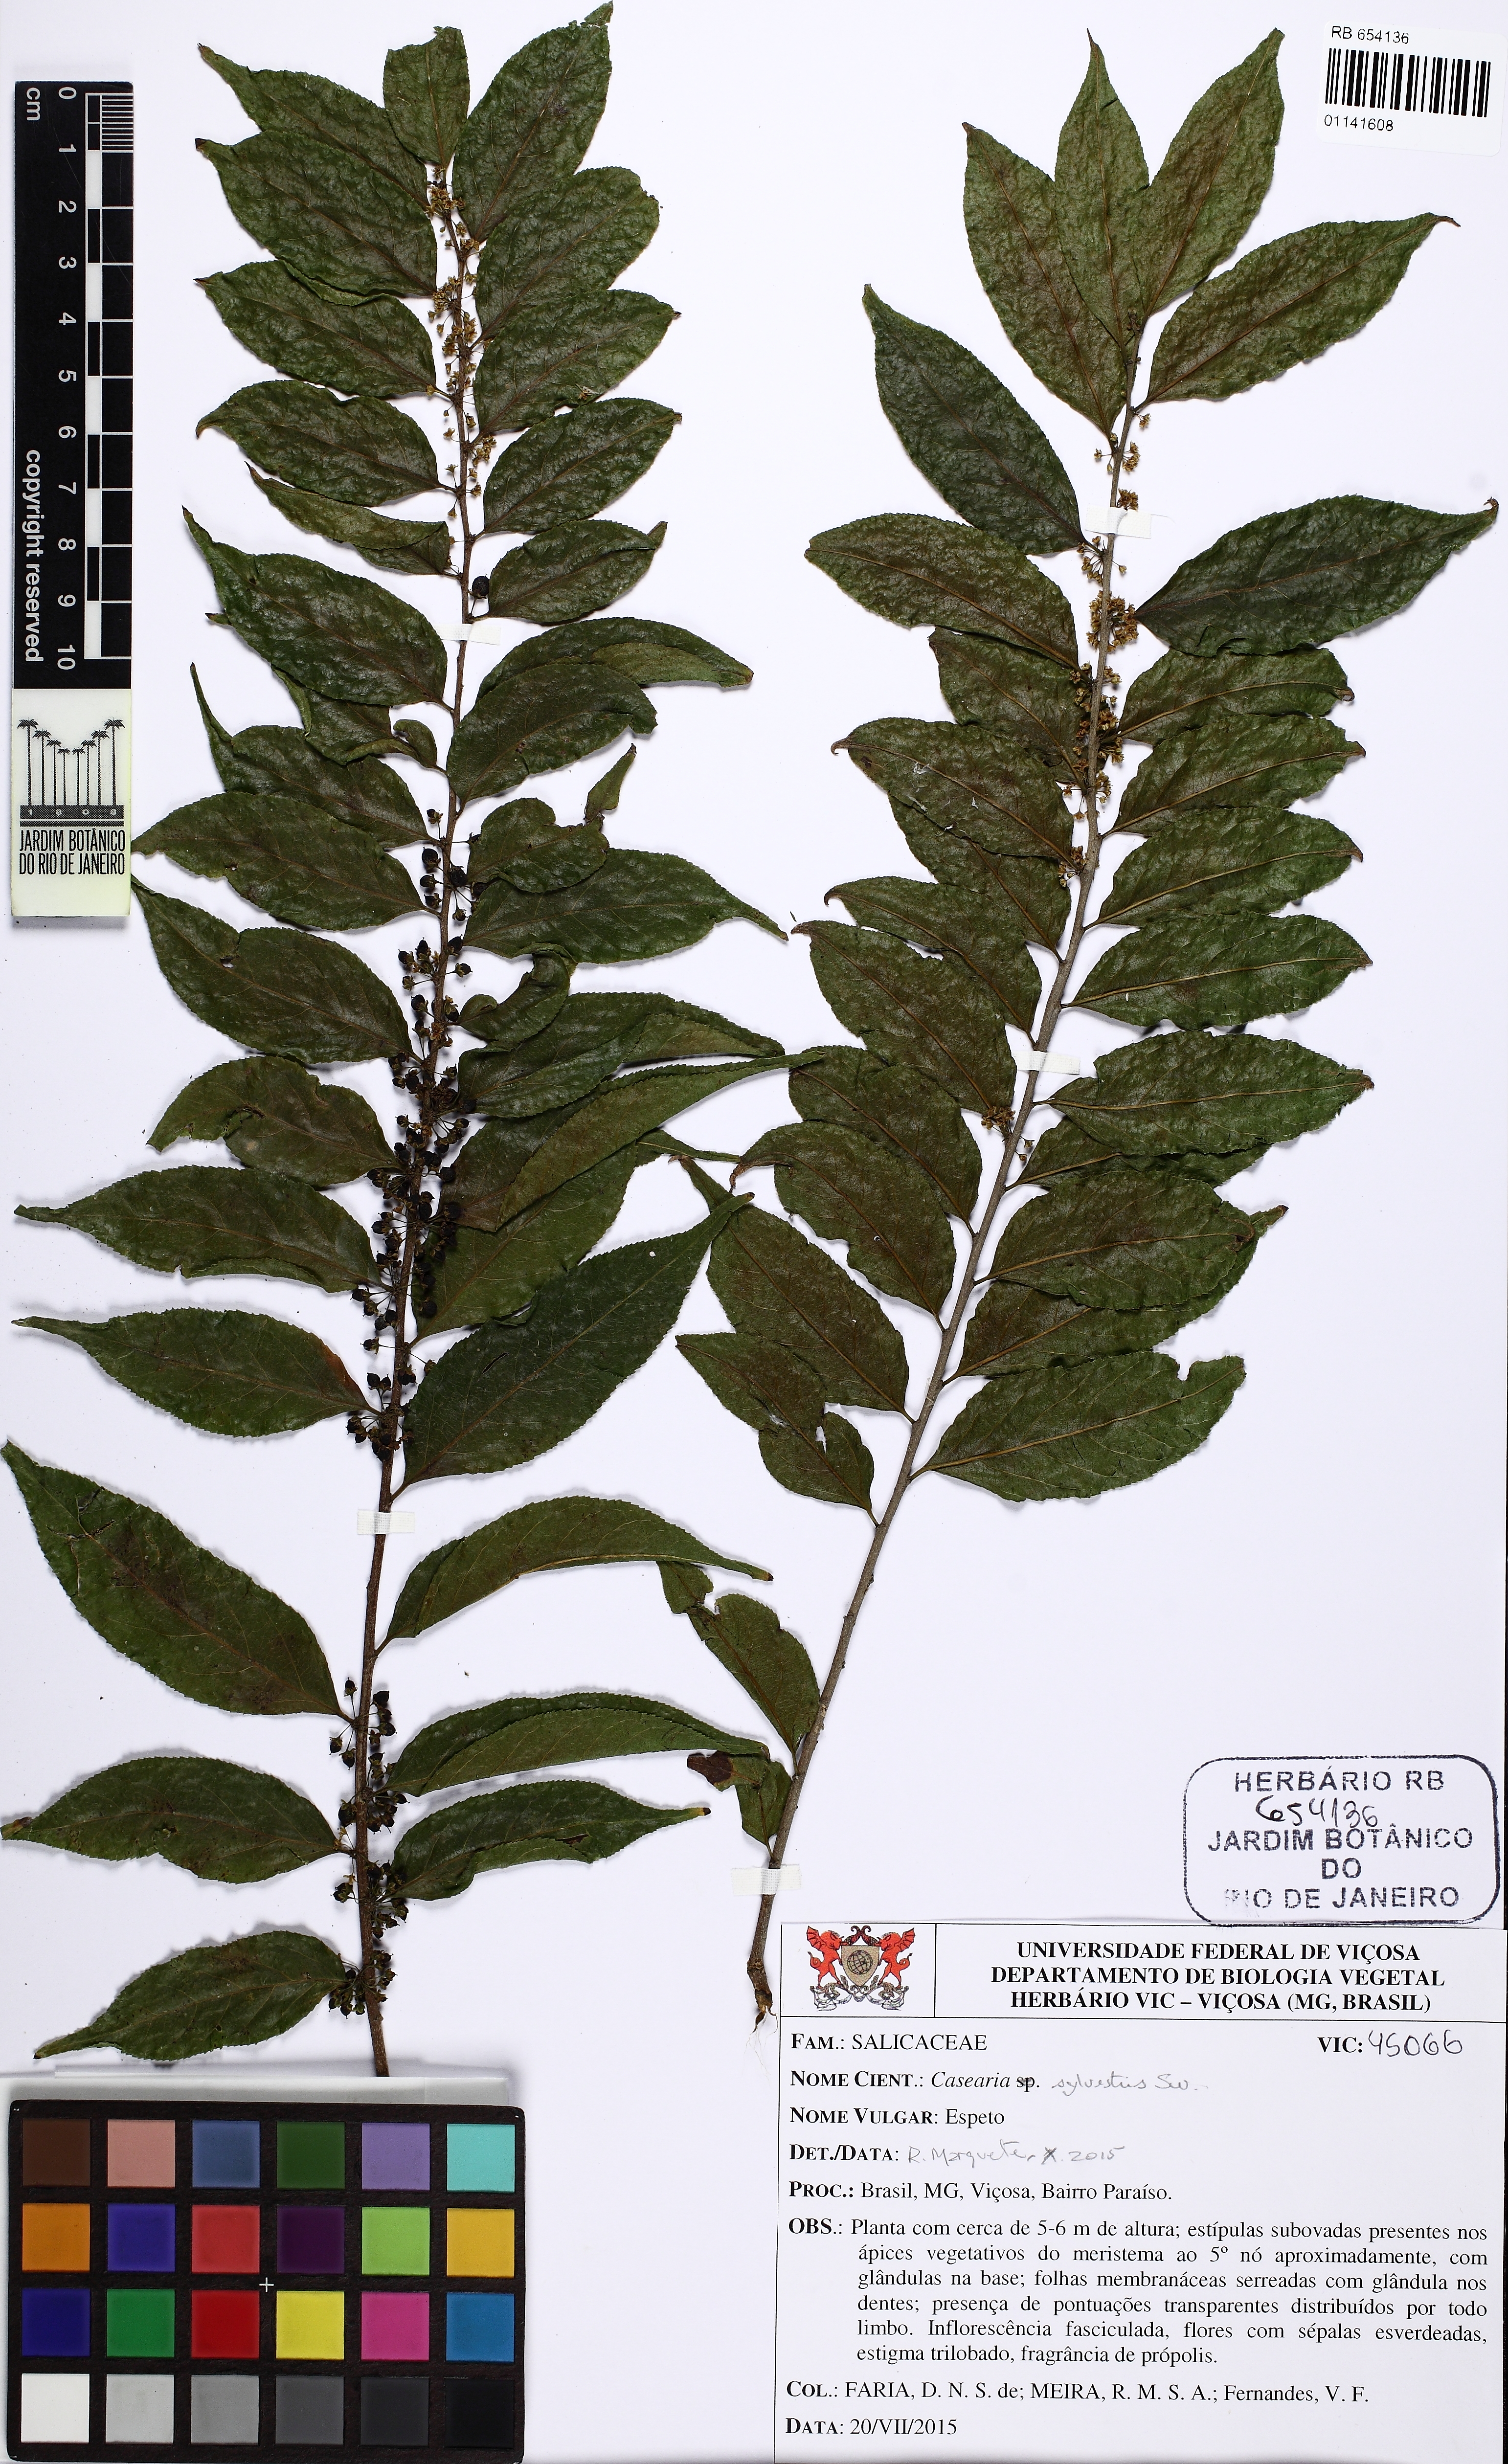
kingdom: Plantae
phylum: Tracheophyta
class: Magnoliopsida
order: Malpighiales
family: Salicaceae
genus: Casearia
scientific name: Casearia sylvestris
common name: Wild sage
